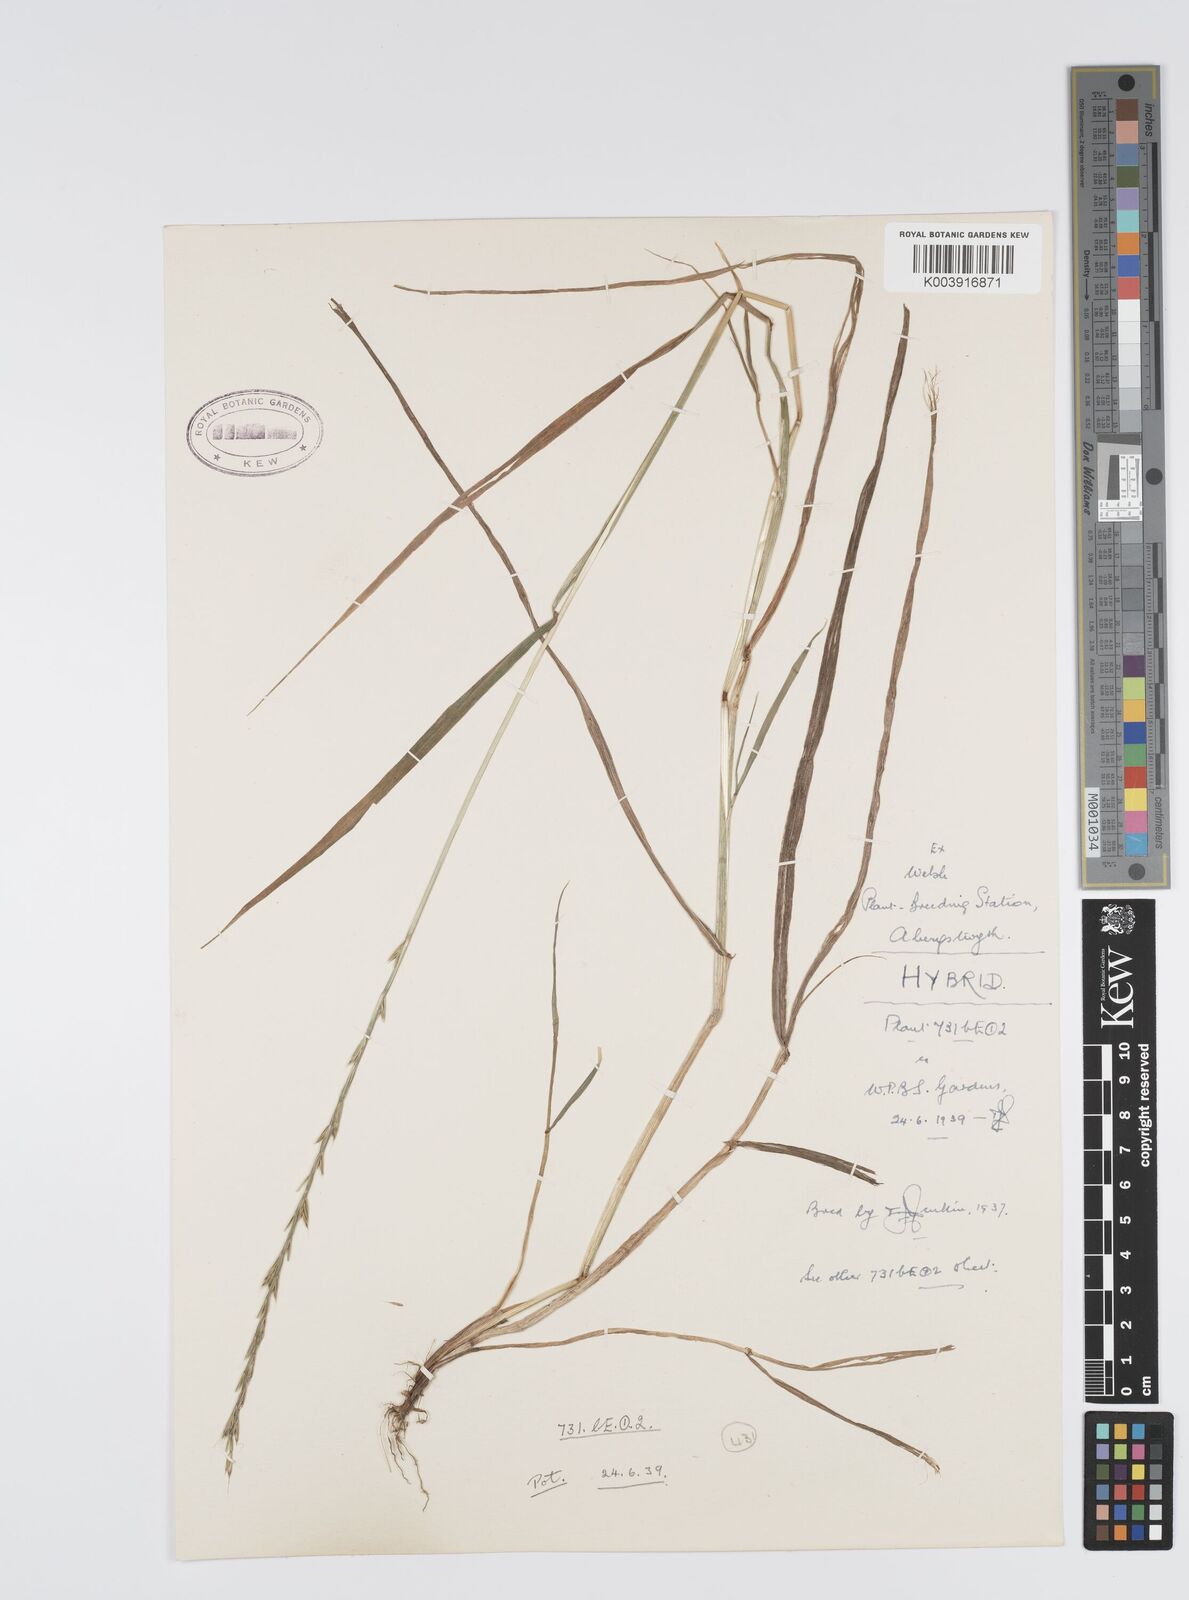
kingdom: Plantae
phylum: Tracheophyta
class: Liliopsida
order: Poales
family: Poaceae
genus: Lolium
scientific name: Lolium multiflorum
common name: Annual ryegrass
